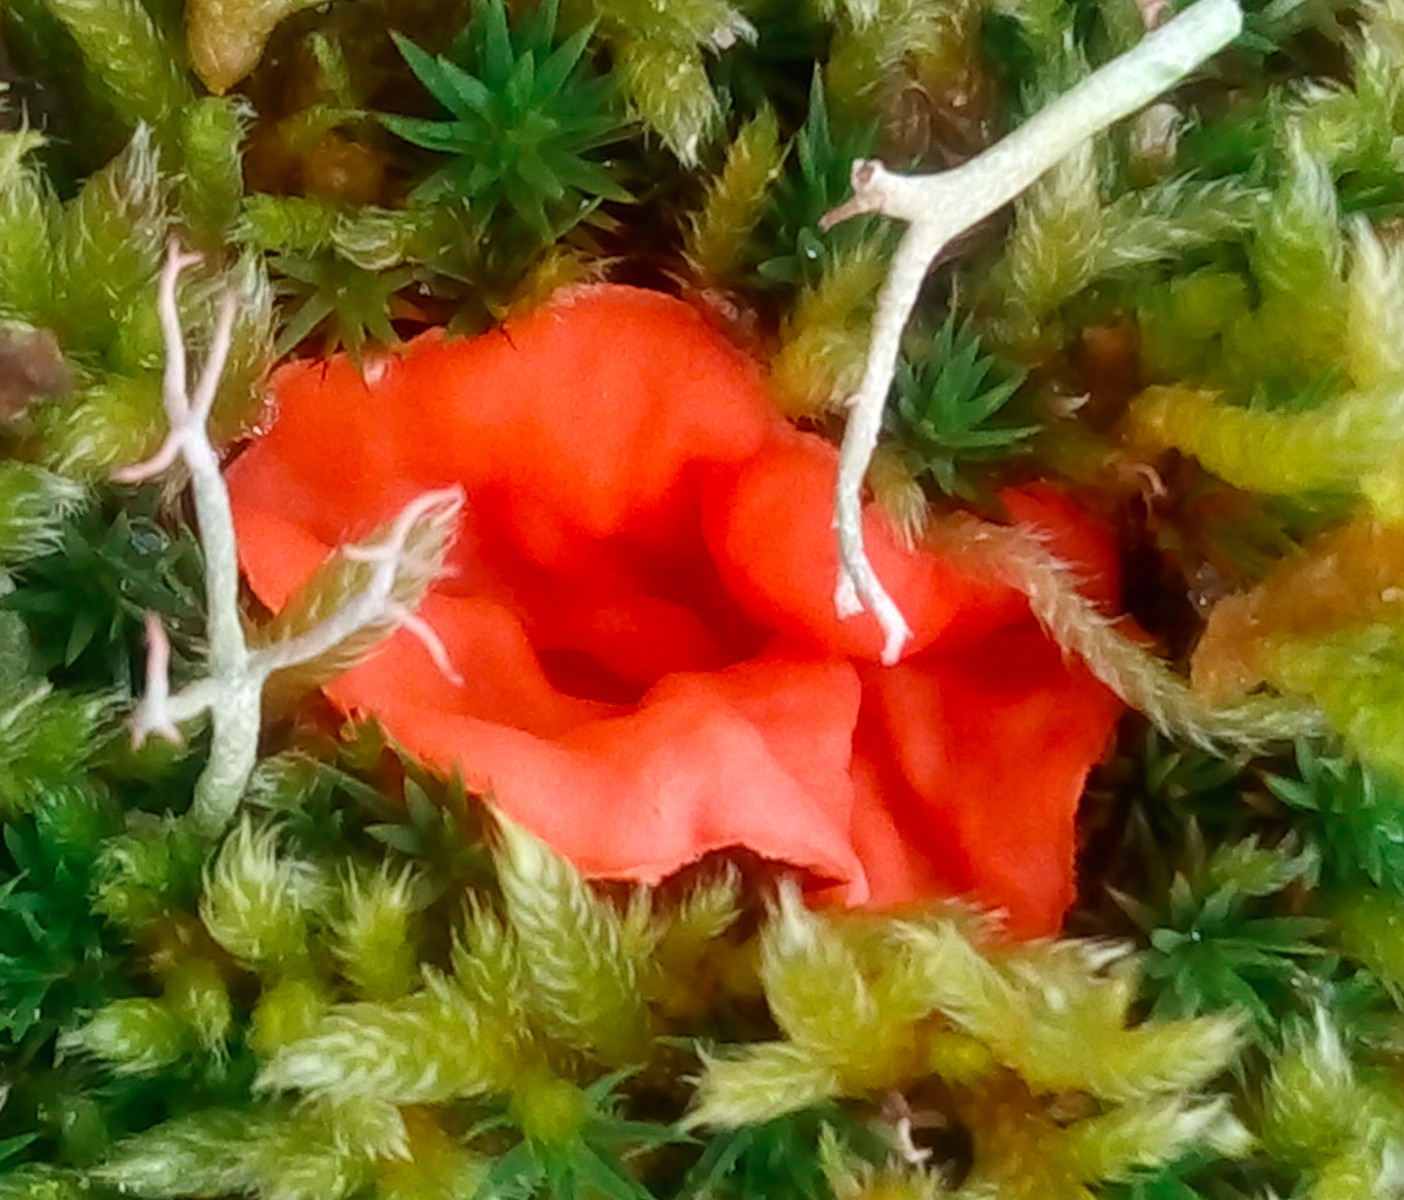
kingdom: Fungi
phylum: Ascomycota
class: Pezizomycetes
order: Pezizales
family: Pyronemataceae
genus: Neottiella
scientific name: Neottiella rutilans
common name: jomfruhår-mosbæger
